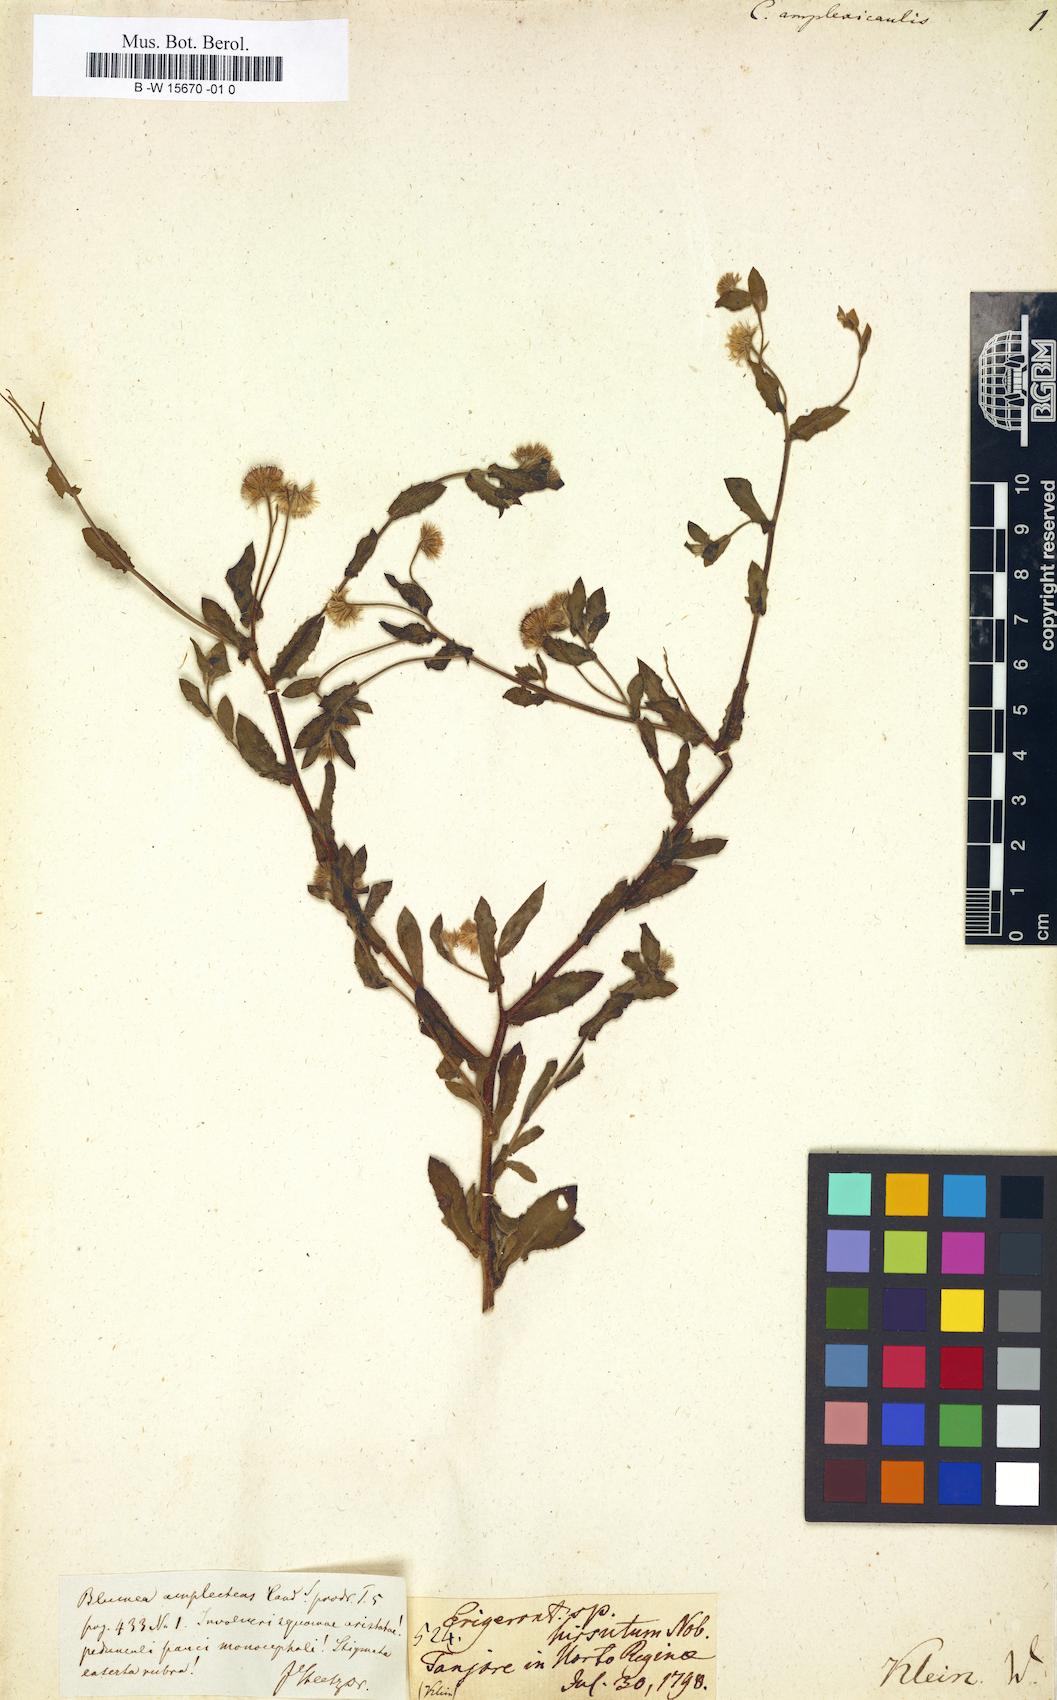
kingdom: Plantae
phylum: Tracheophyta
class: Magnoliopsida
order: Asterales
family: Asteraceae
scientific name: Asteraceae
